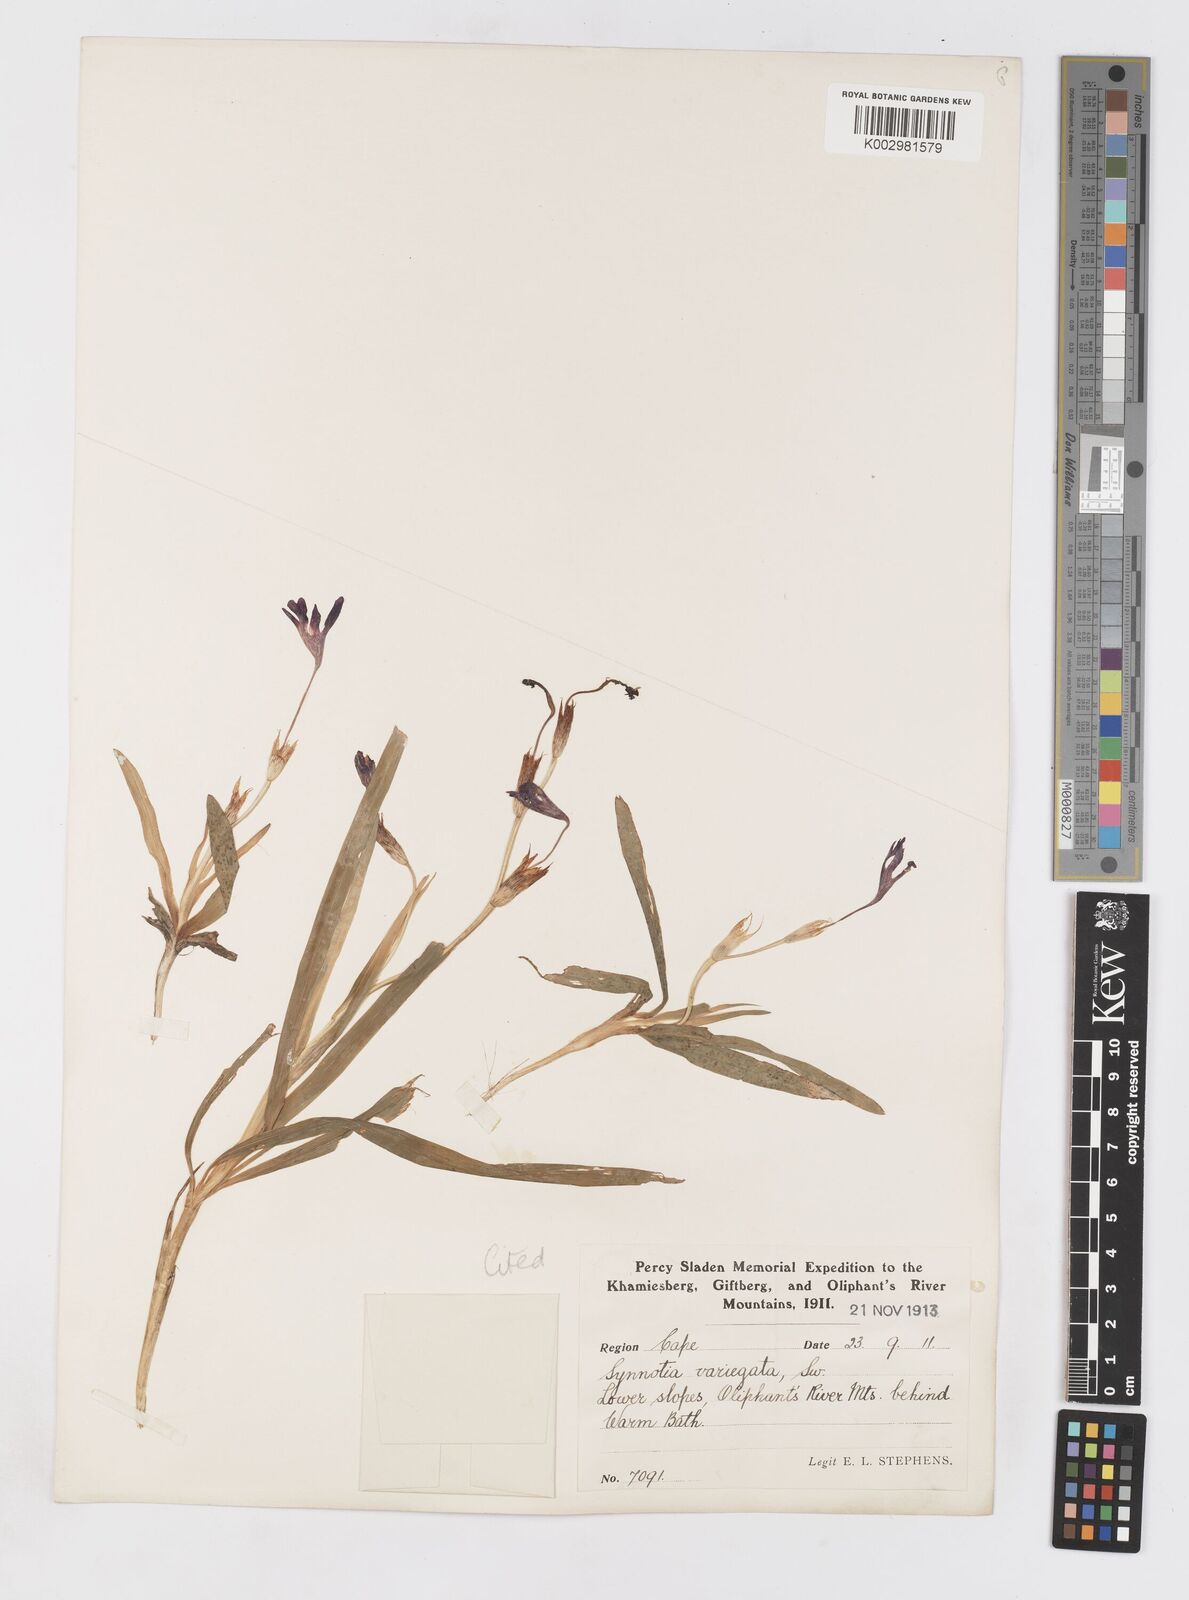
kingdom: Plantae
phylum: Tracheophyta
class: Liliopsida
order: Asparagales
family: Iridaceae
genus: Sparaxis
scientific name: Sparaxis metelerkampiae
